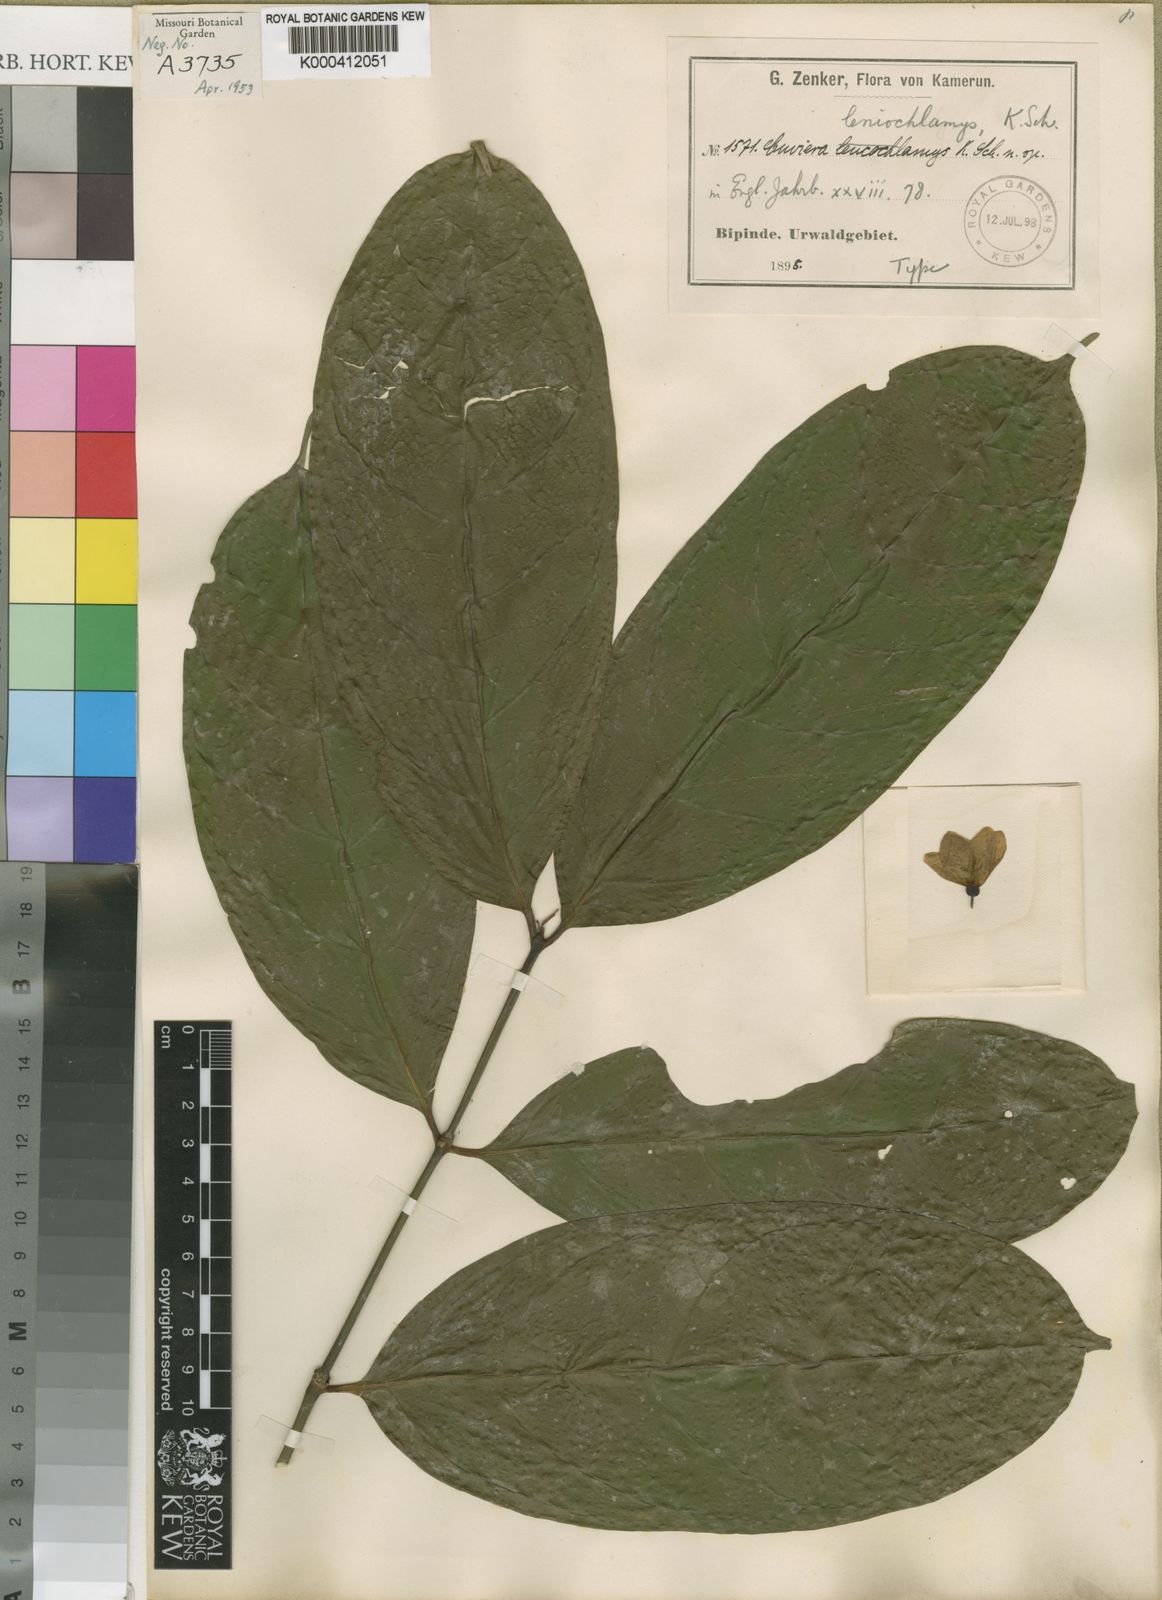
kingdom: Plantae
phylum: Tracheophyta
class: Magnoliopsida
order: Gentianales
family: Rubiaceae
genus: Globulostylis
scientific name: Globulostylis
